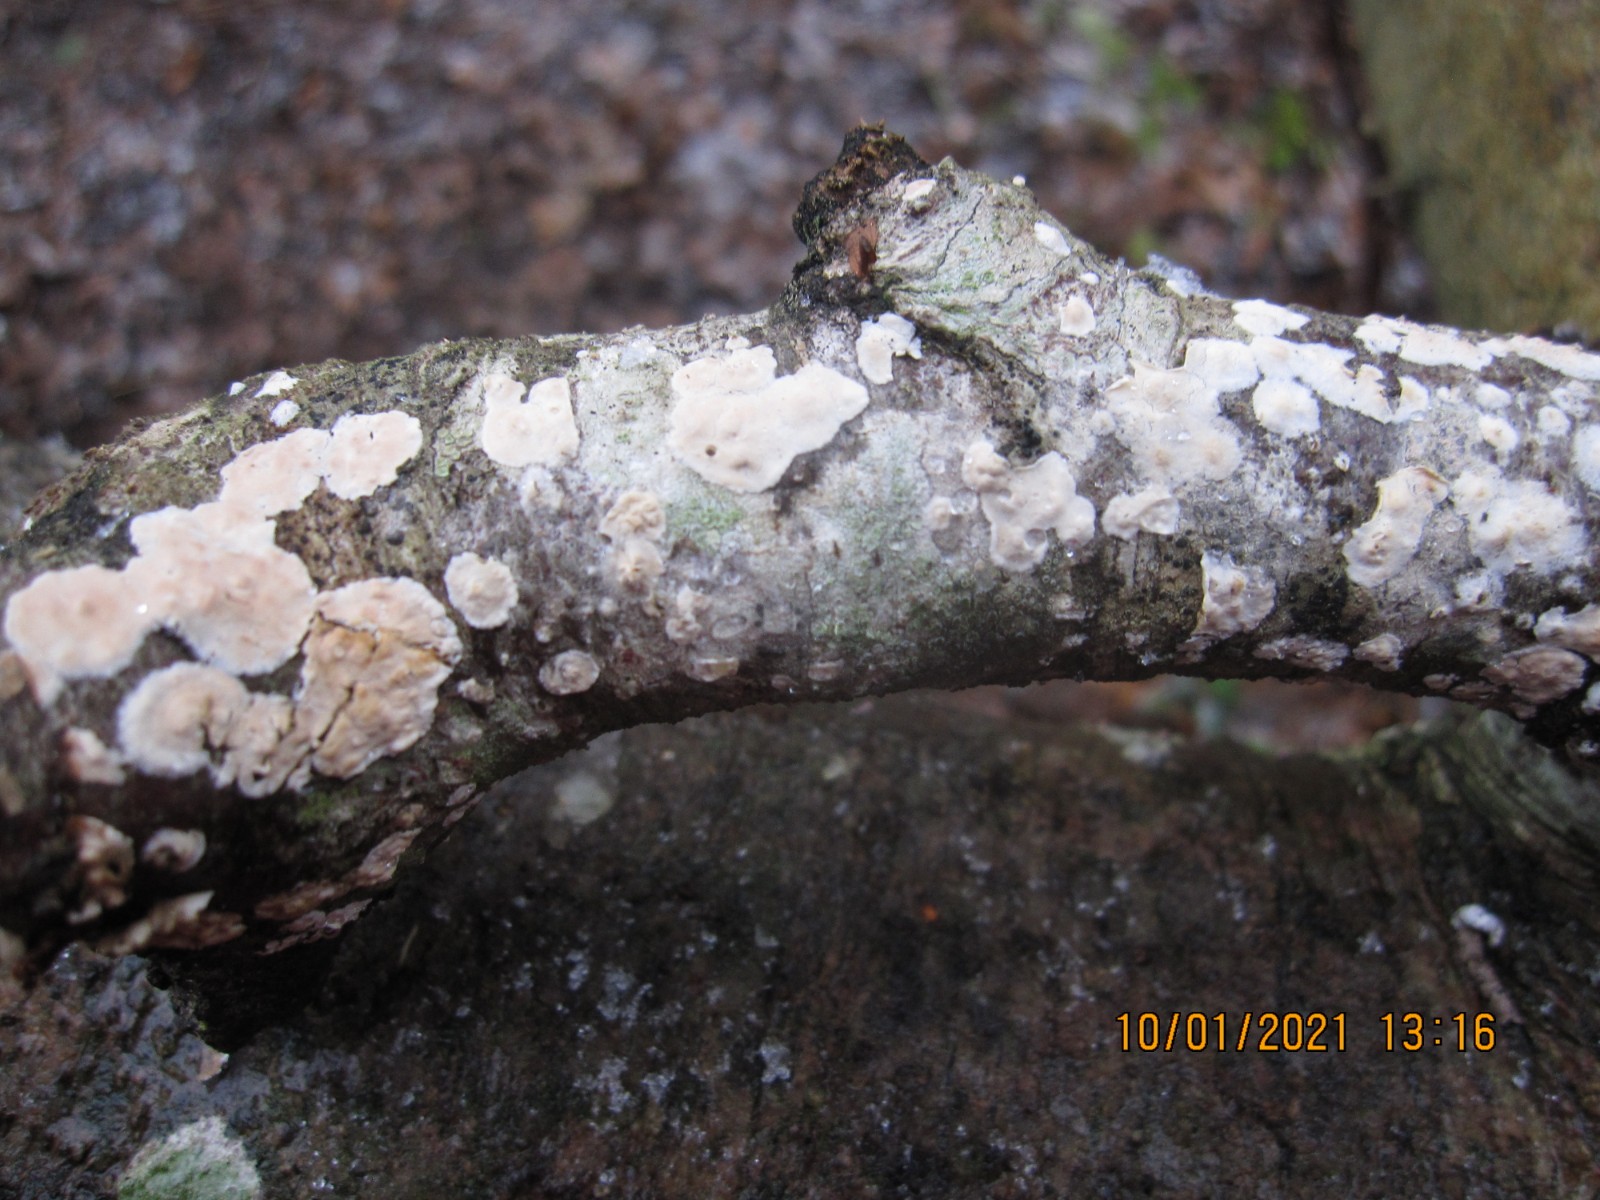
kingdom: Fungi
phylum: Basidiomycota
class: Agaricomycetes
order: Agaricales
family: Physalacriaceae
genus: Cylindrobasidium
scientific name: Cylindrobasidium evolvens
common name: sprækkehinde
